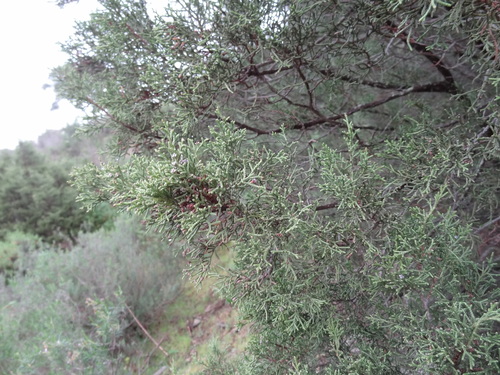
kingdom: Plantae
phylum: Tracheophyta
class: Pinopsida
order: Pinales
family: Cupressaceae
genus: Juniperus
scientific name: Juniperus phoenicea
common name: Phoenician juniper
